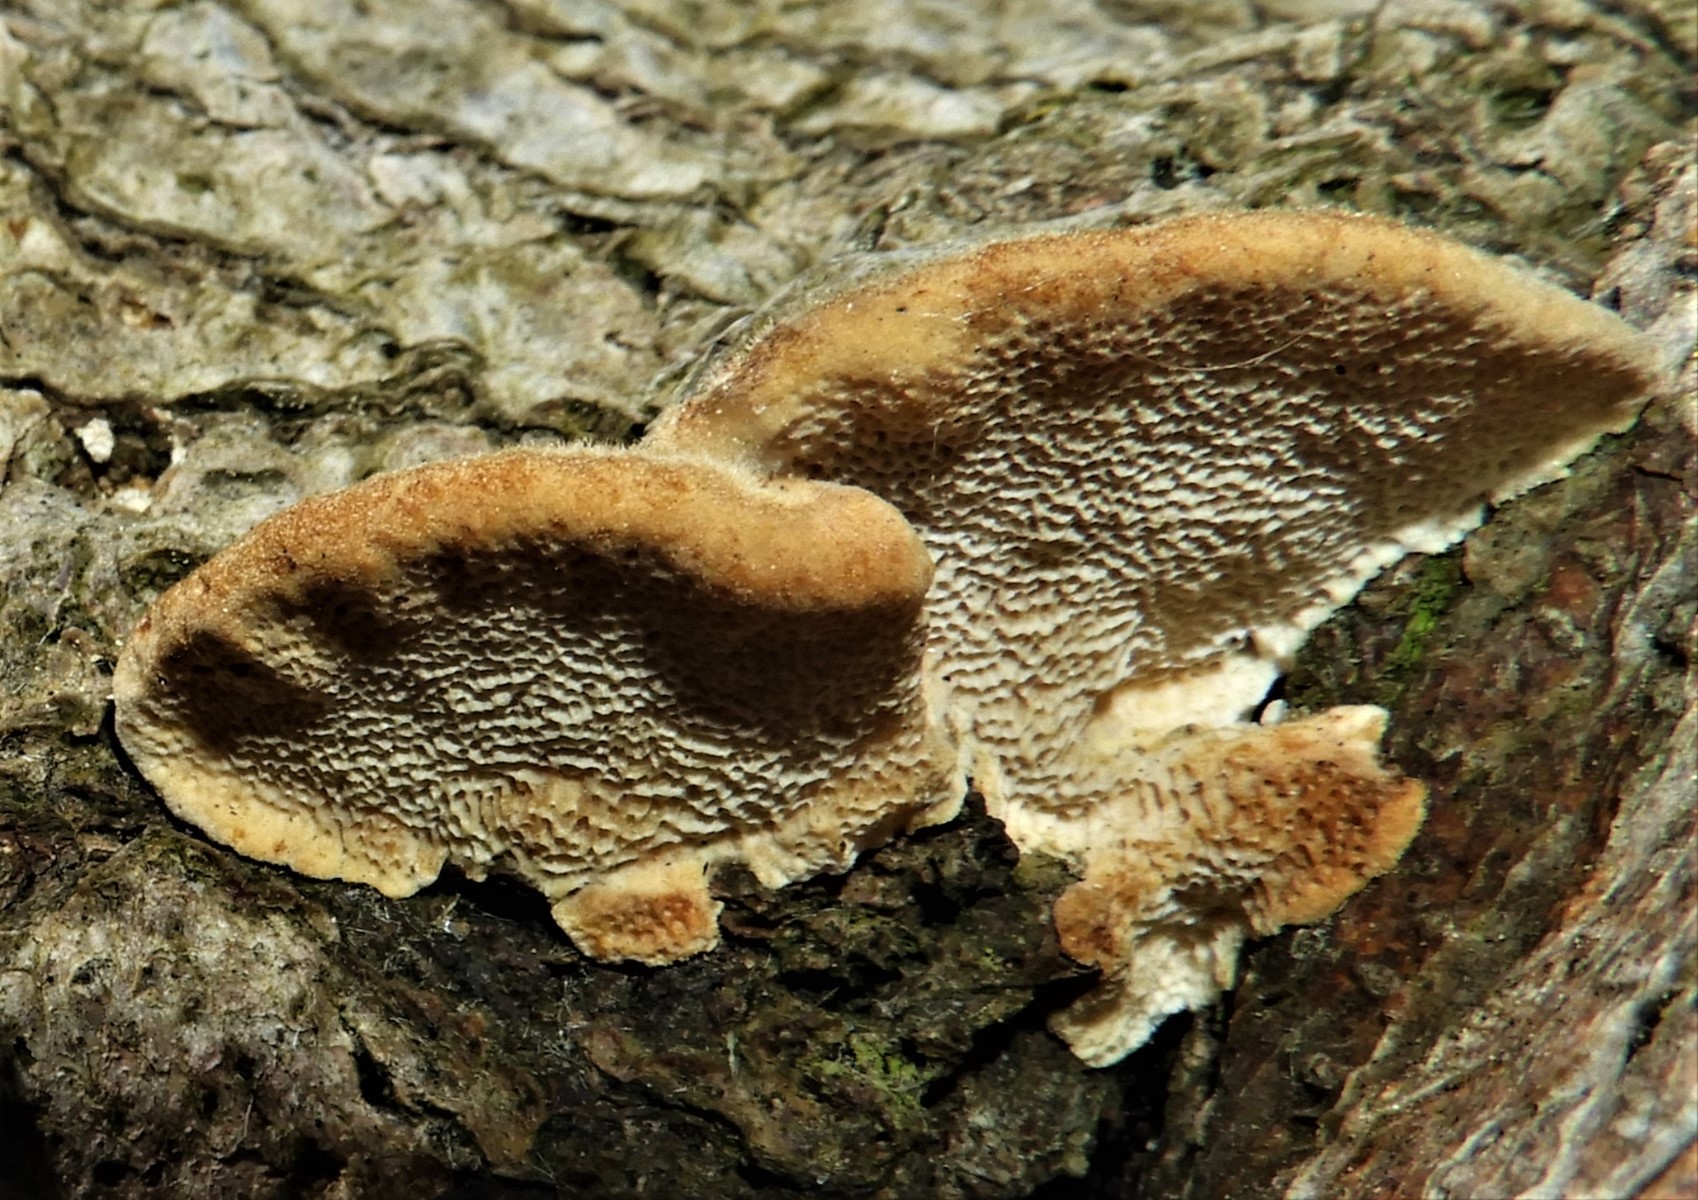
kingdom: Fungi
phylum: Basidiomycota
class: Agaricomycetes
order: Polyporales
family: Polyporaceae
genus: Trametes
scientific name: Trametes hirsuta
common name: håret læderporesvamp
